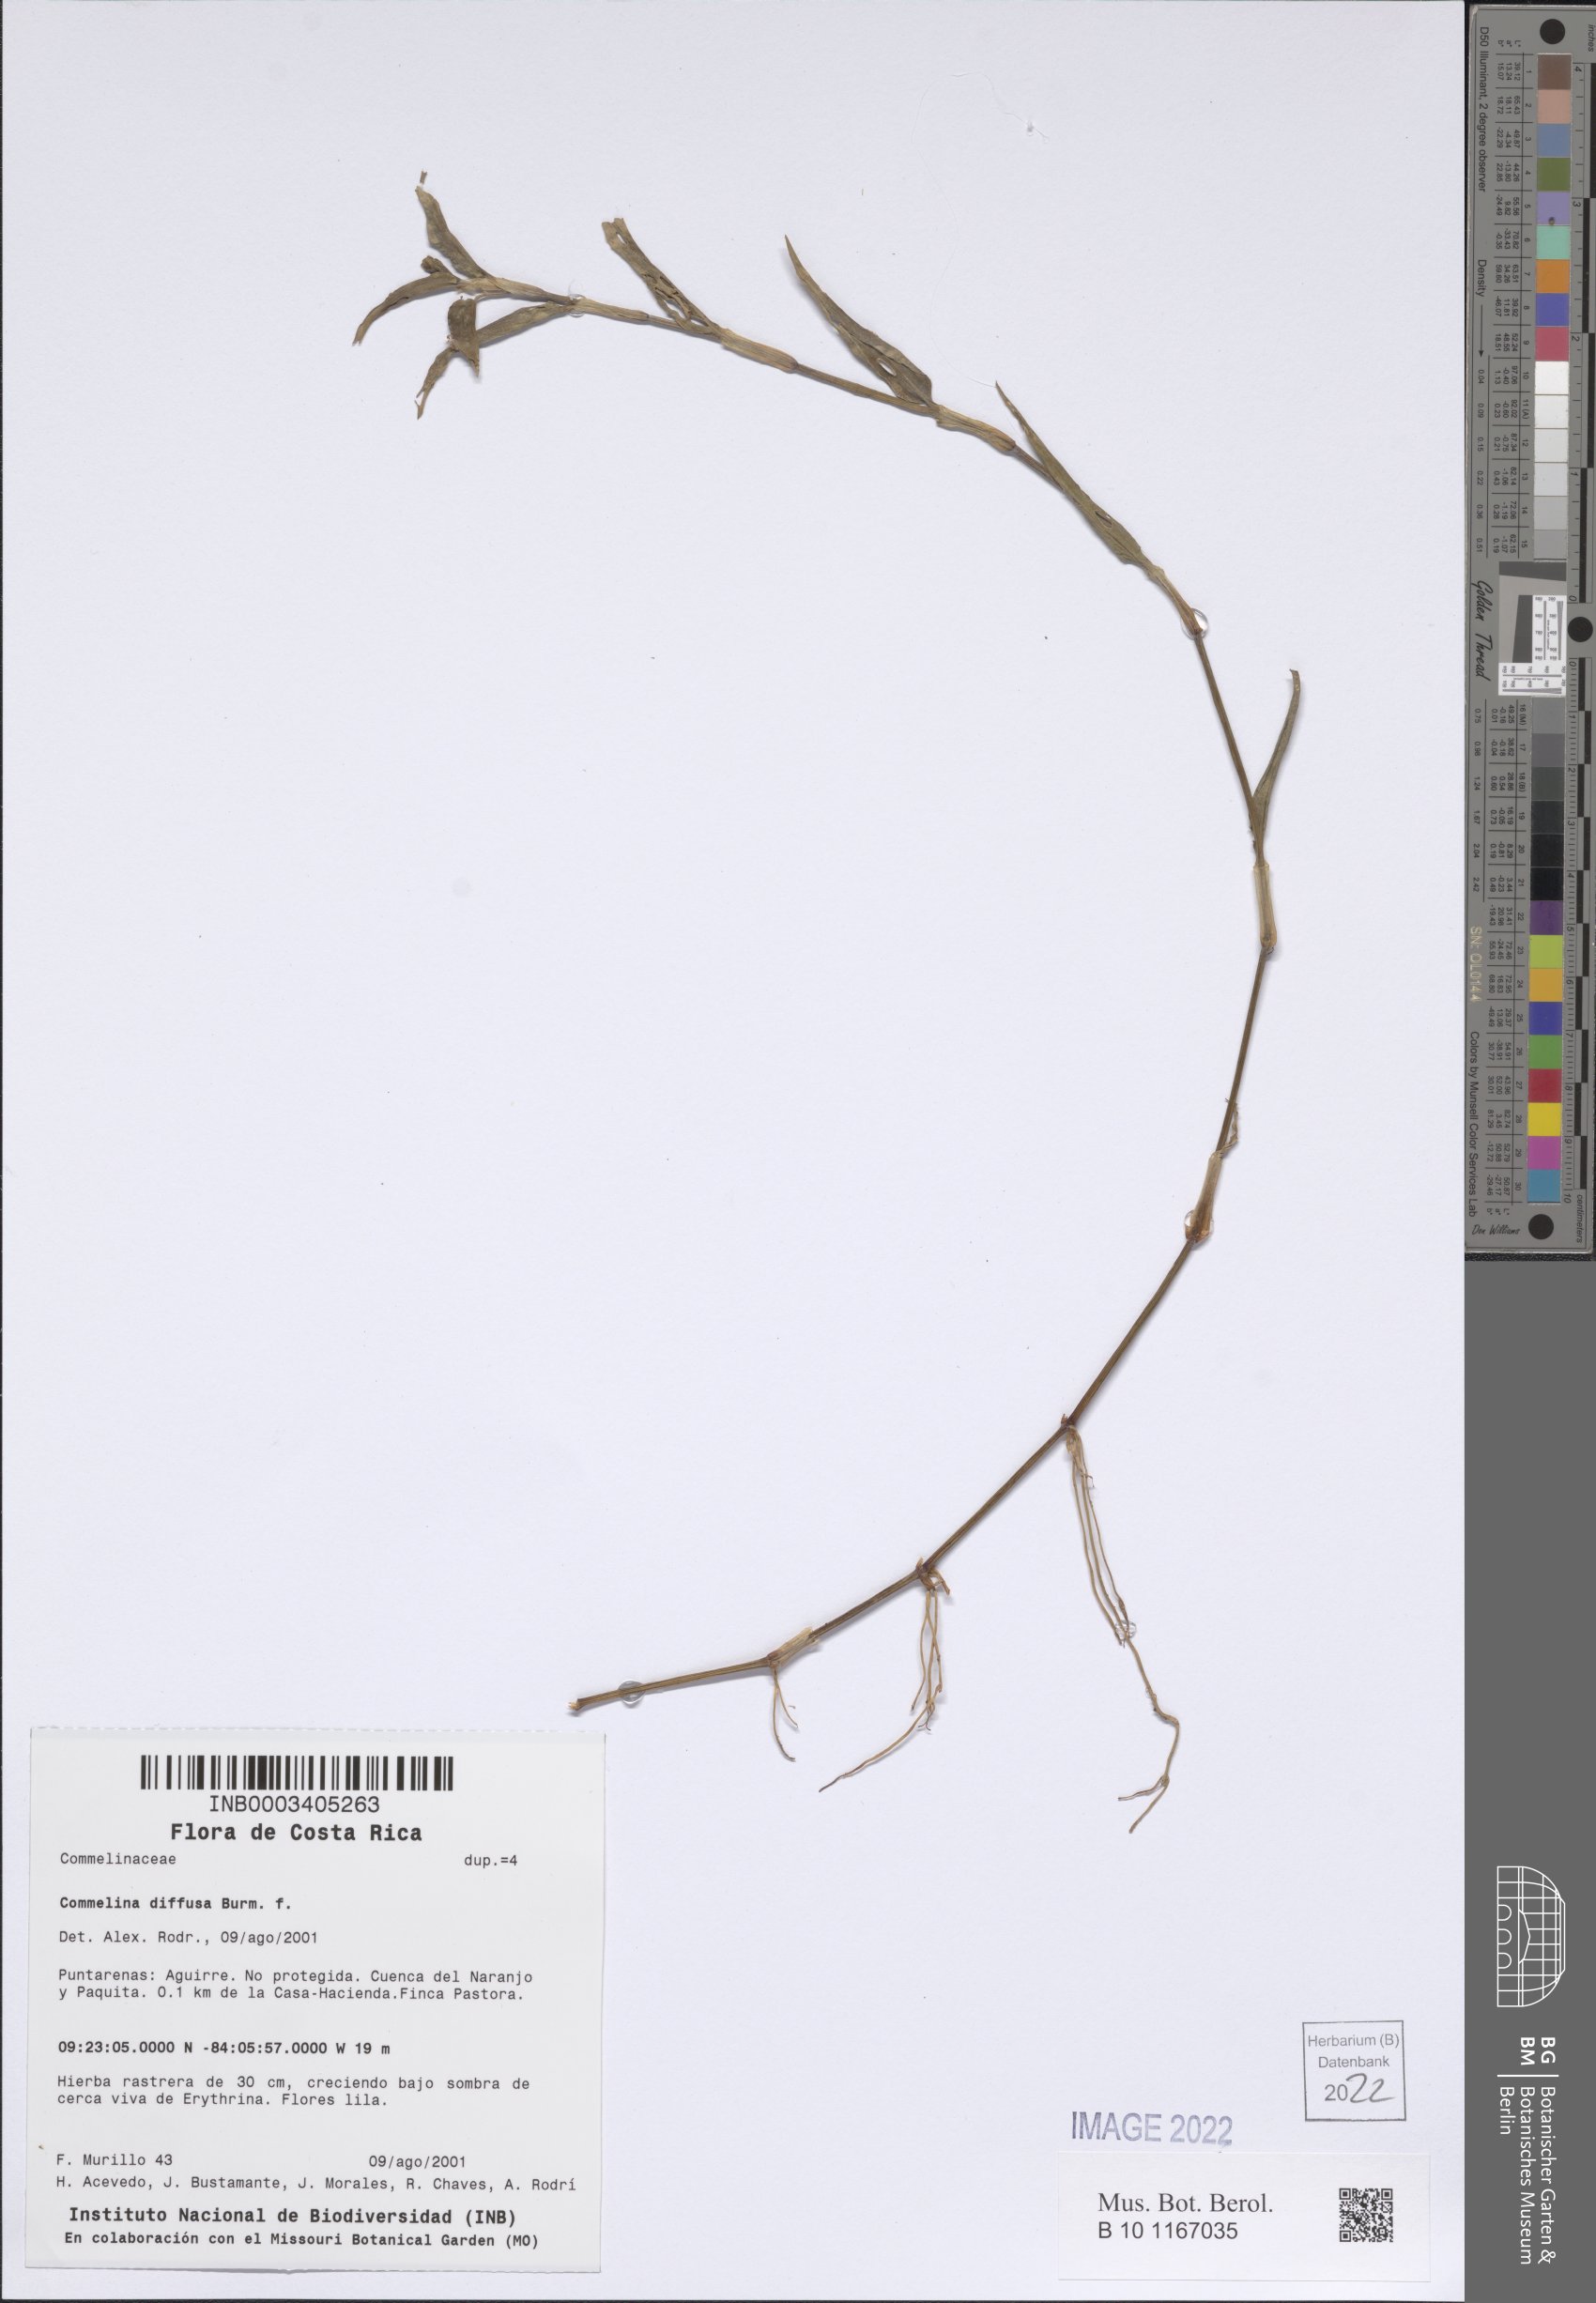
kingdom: Plantae
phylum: Tracheophyta
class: Liliopsida
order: Commelinales
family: Commelinaceae
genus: Commelina
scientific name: Commelina diffusa
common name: Climbing dayflower
